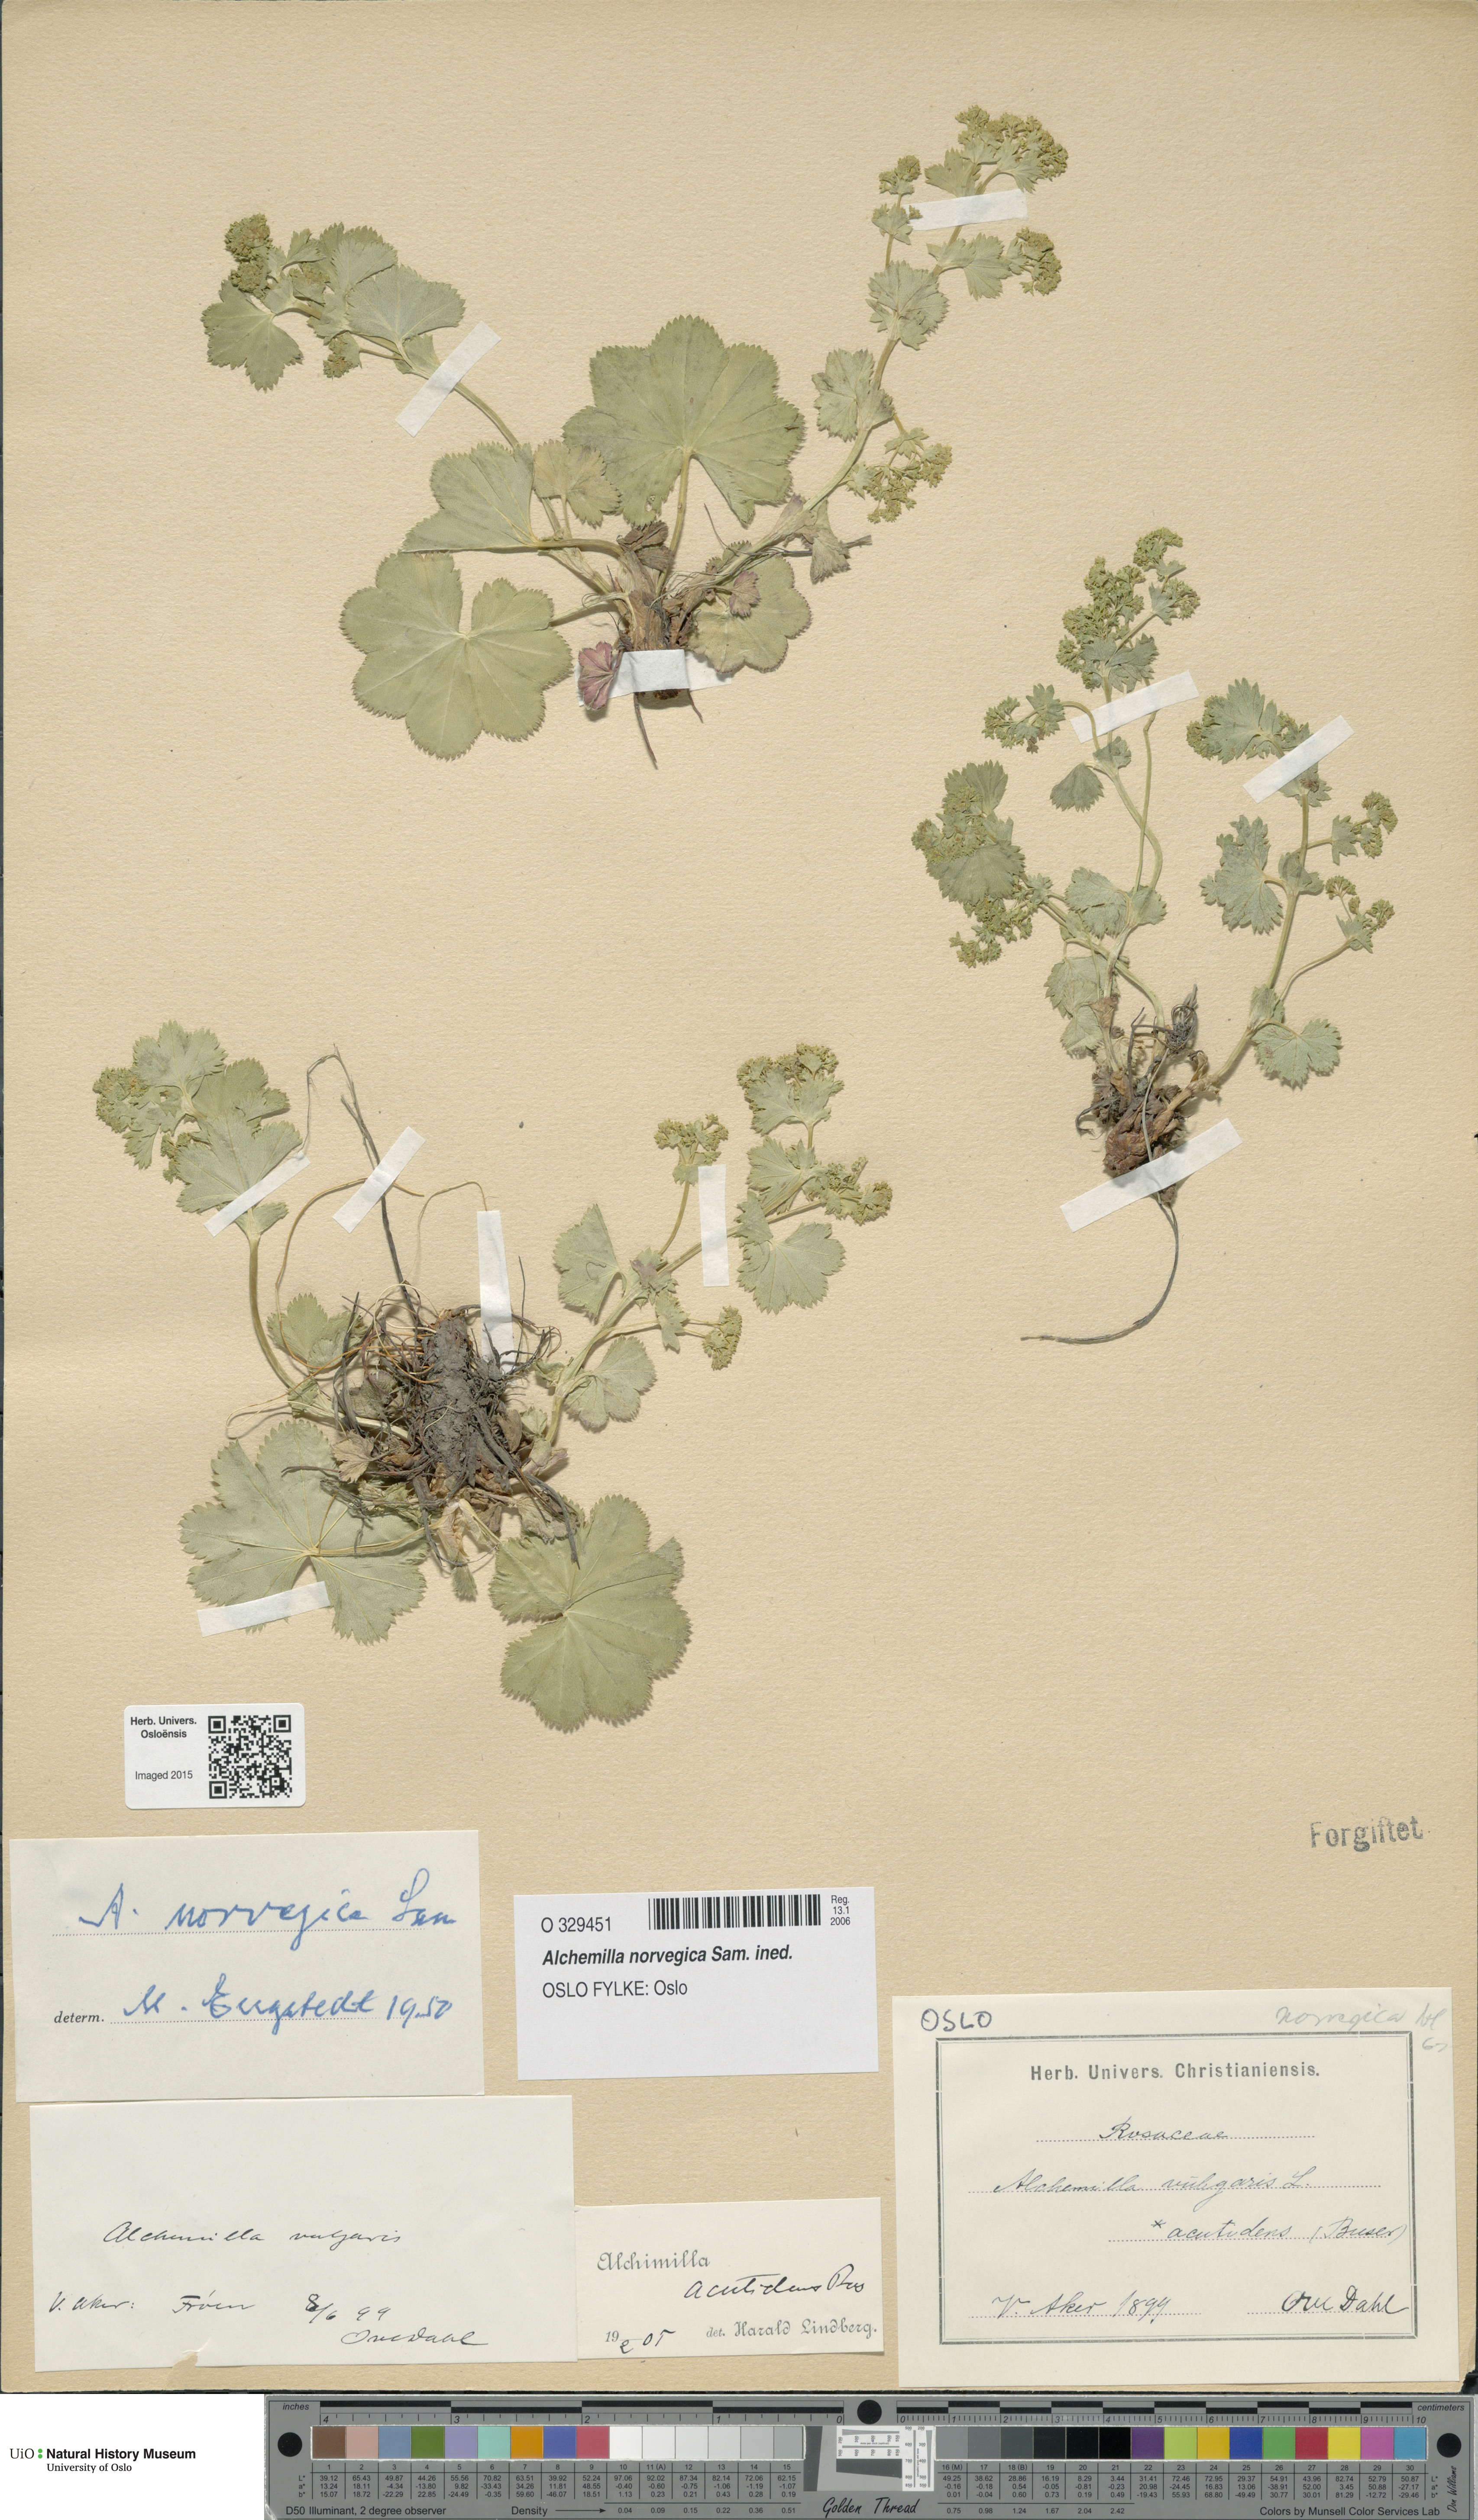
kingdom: Plantae
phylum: Tracheophyta
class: Magnoliopsida
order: Rosales
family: Rosaceae
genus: Alchemilla
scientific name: Alchemilla norvegica
